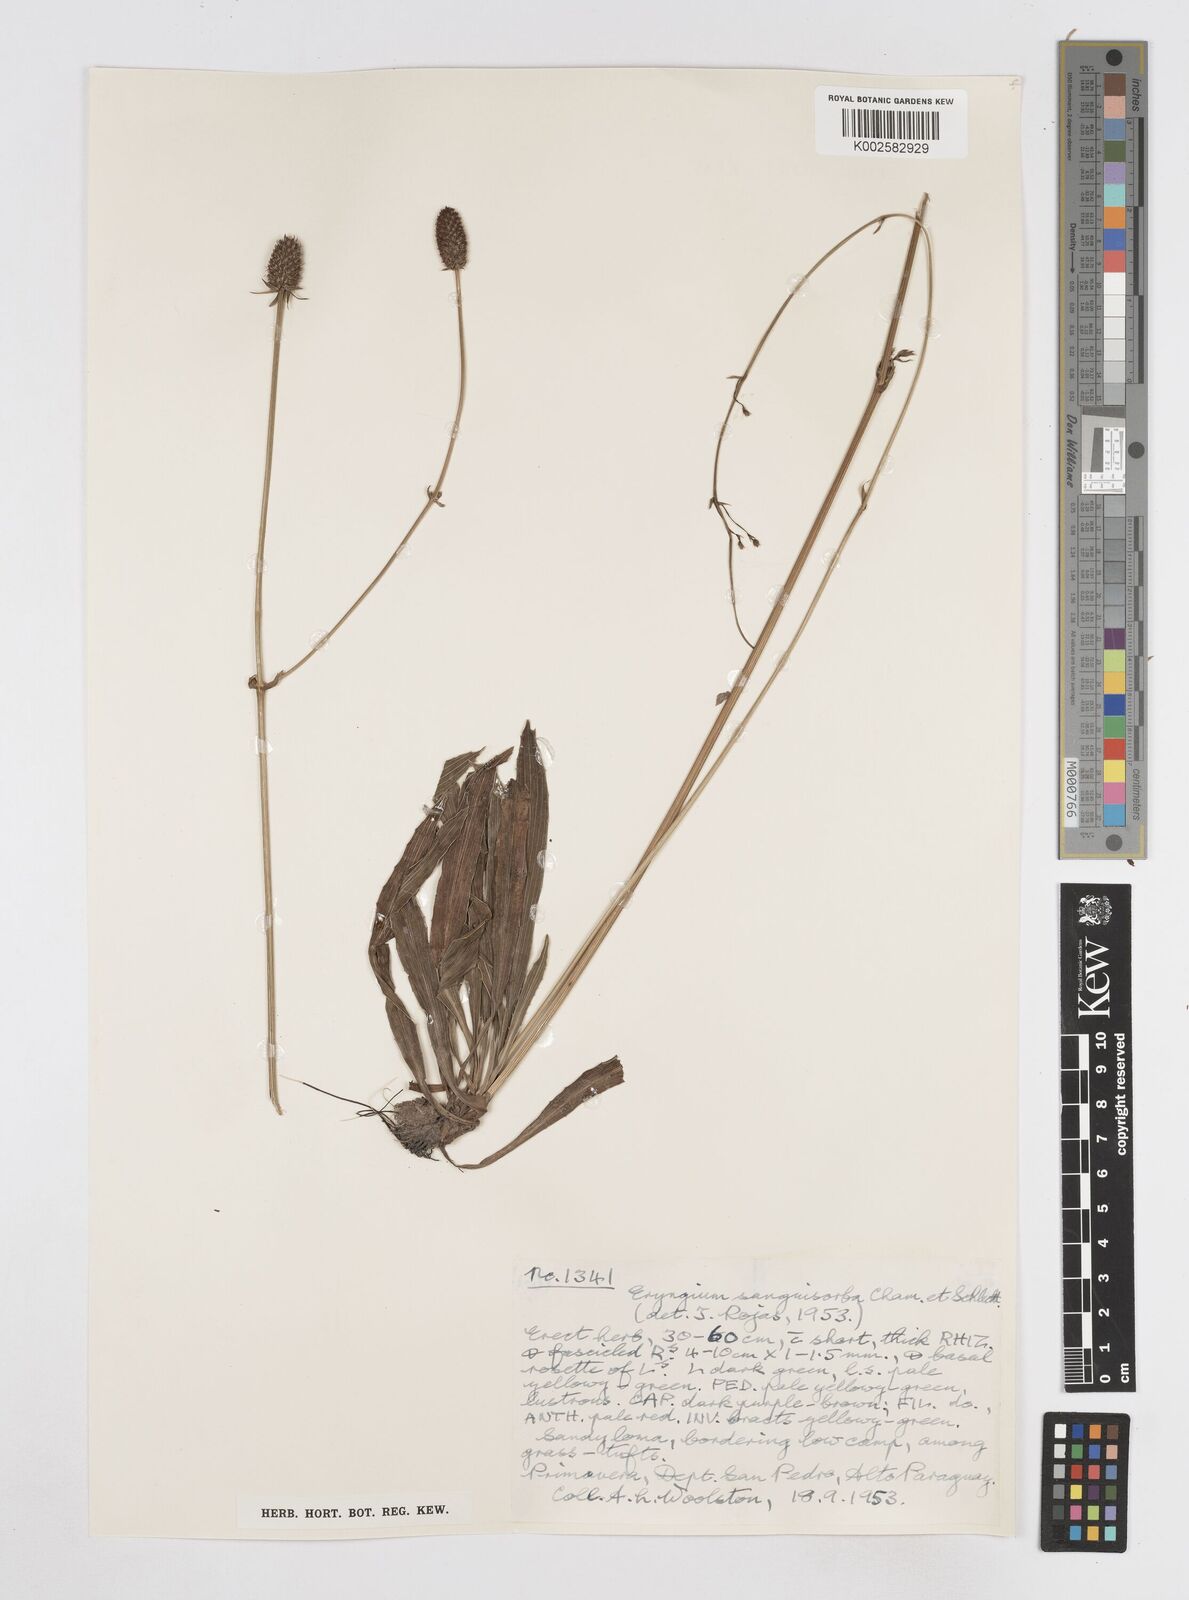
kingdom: Plantae
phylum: Tracheophyta
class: Magnoliopsida
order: Apiales
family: Apiaceae
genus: Eryngium
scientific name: Eryngium sanguisorba
